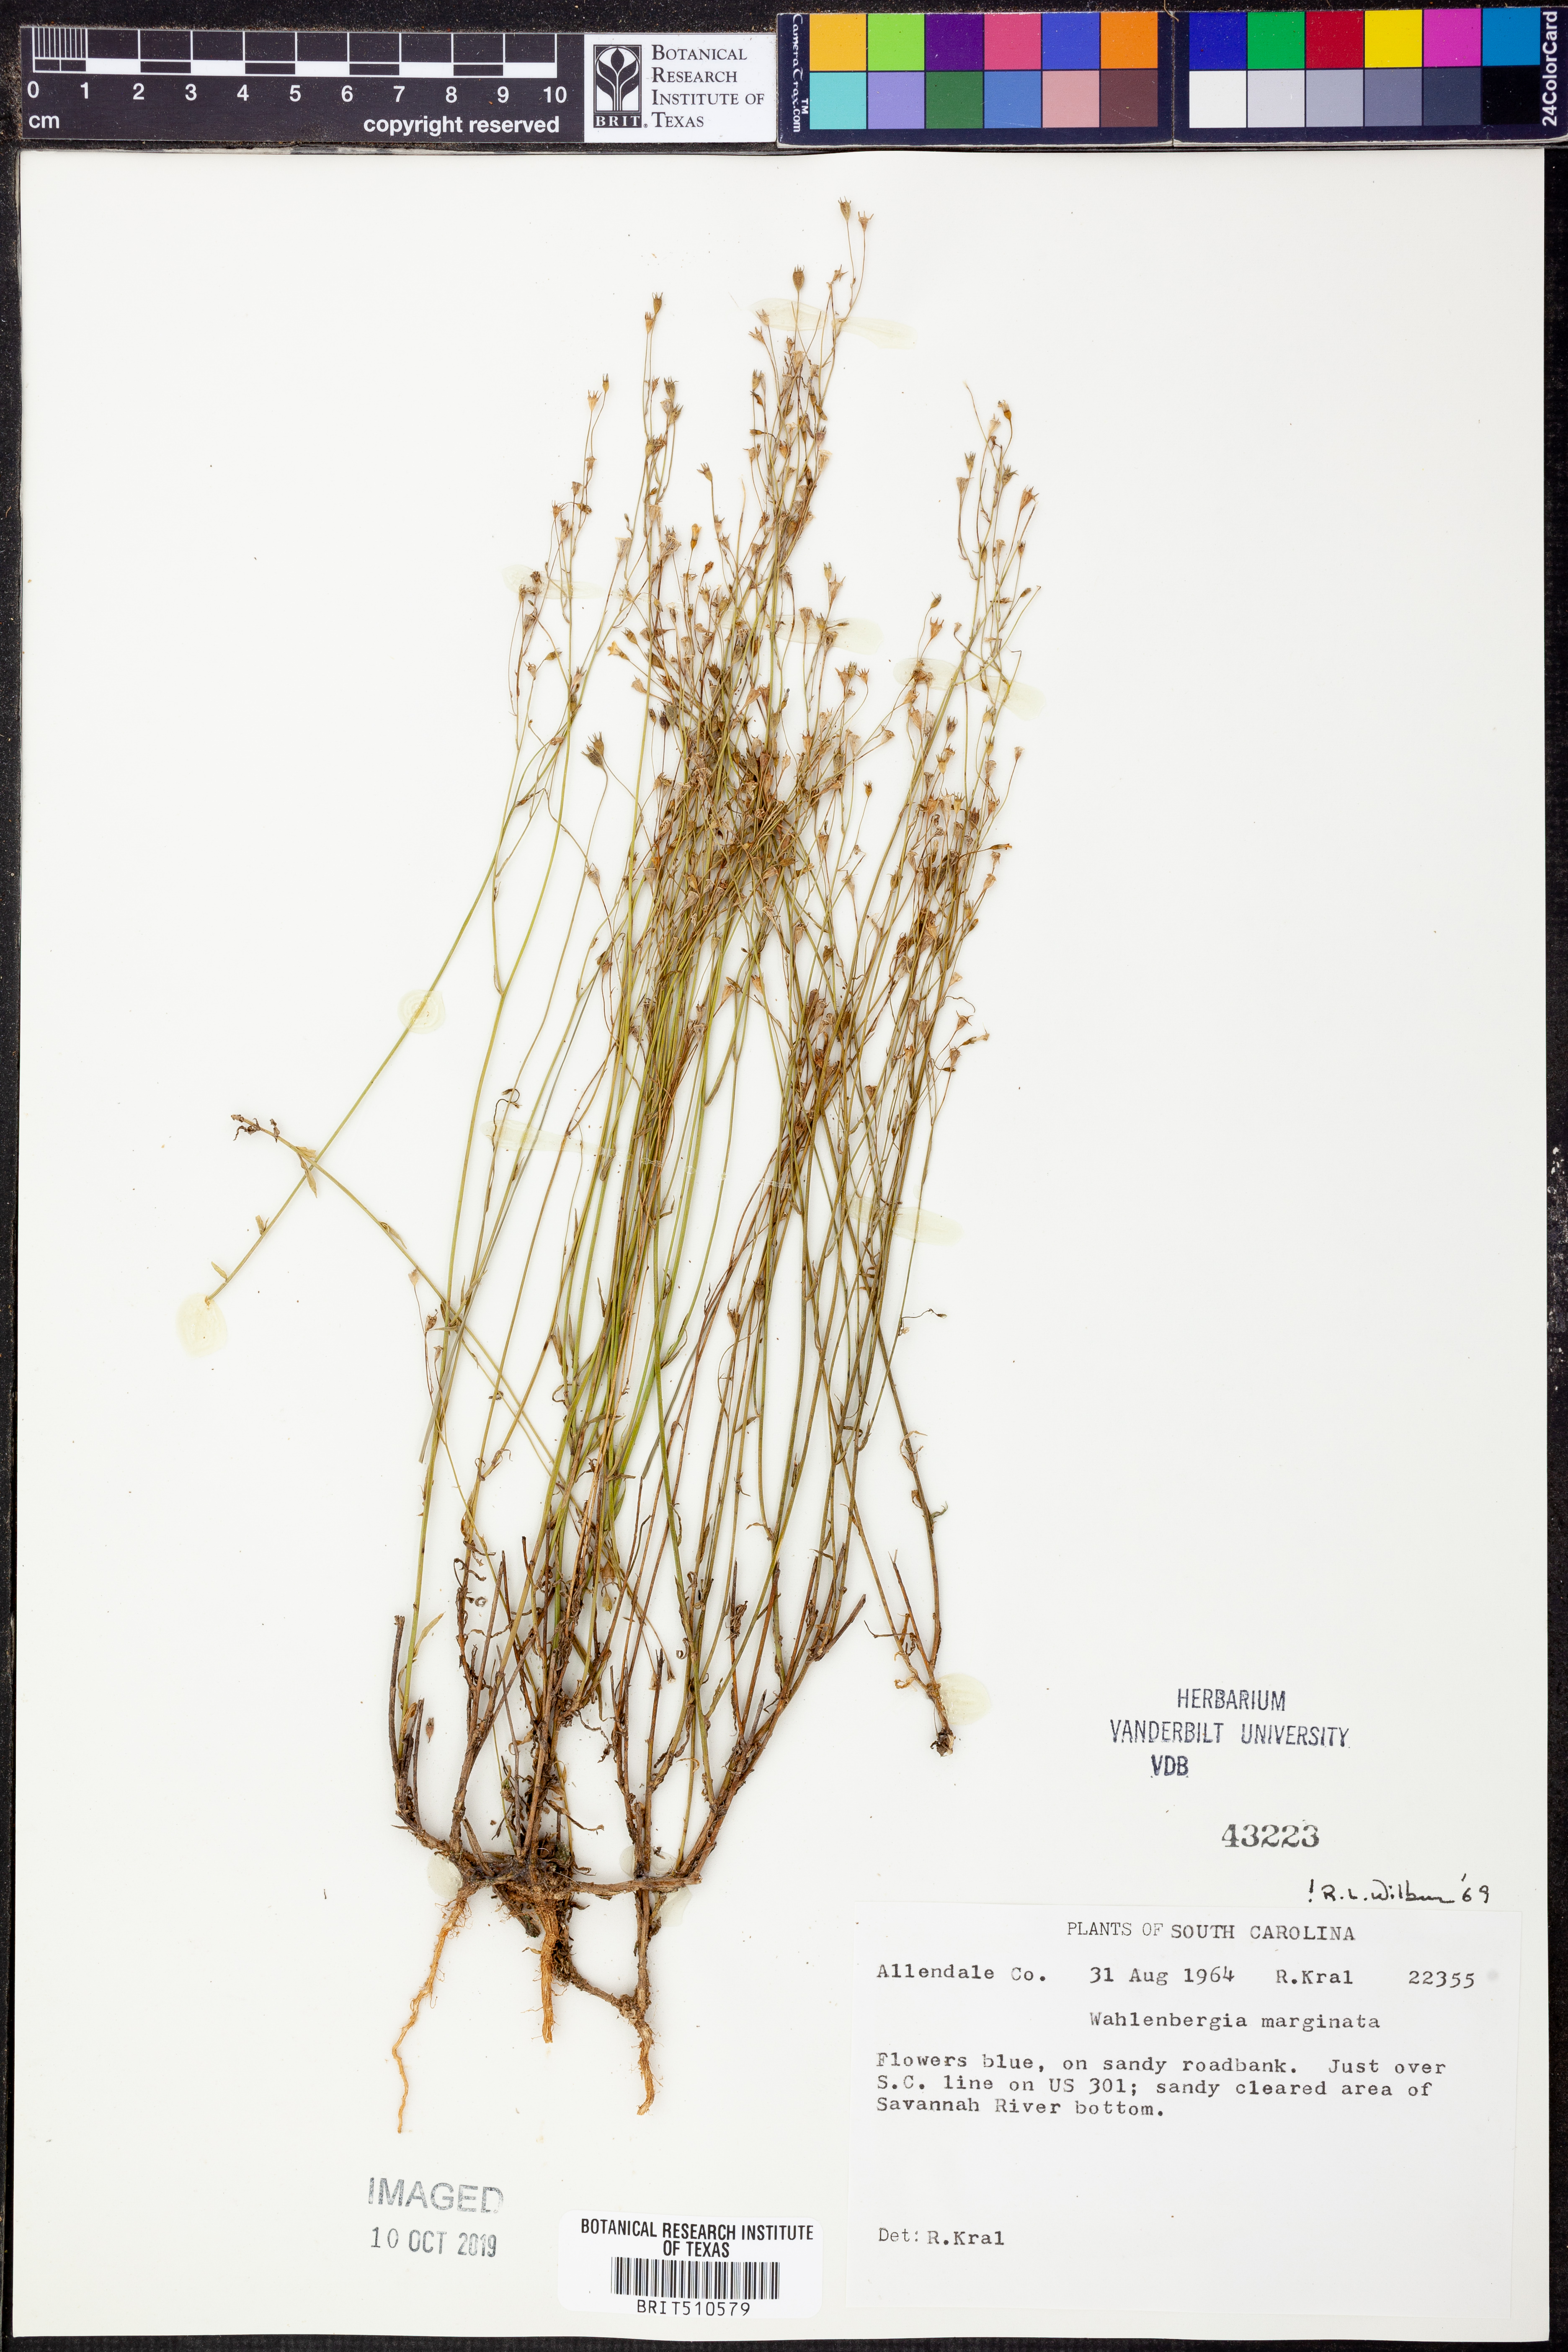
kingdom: Plantae
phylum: Tracheophyta
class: Magnoliopsida
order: Asterales
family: Campanulaceae
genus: Wahlenbergia
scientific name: Wahlenbergia marginata
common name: Southern rockbell
